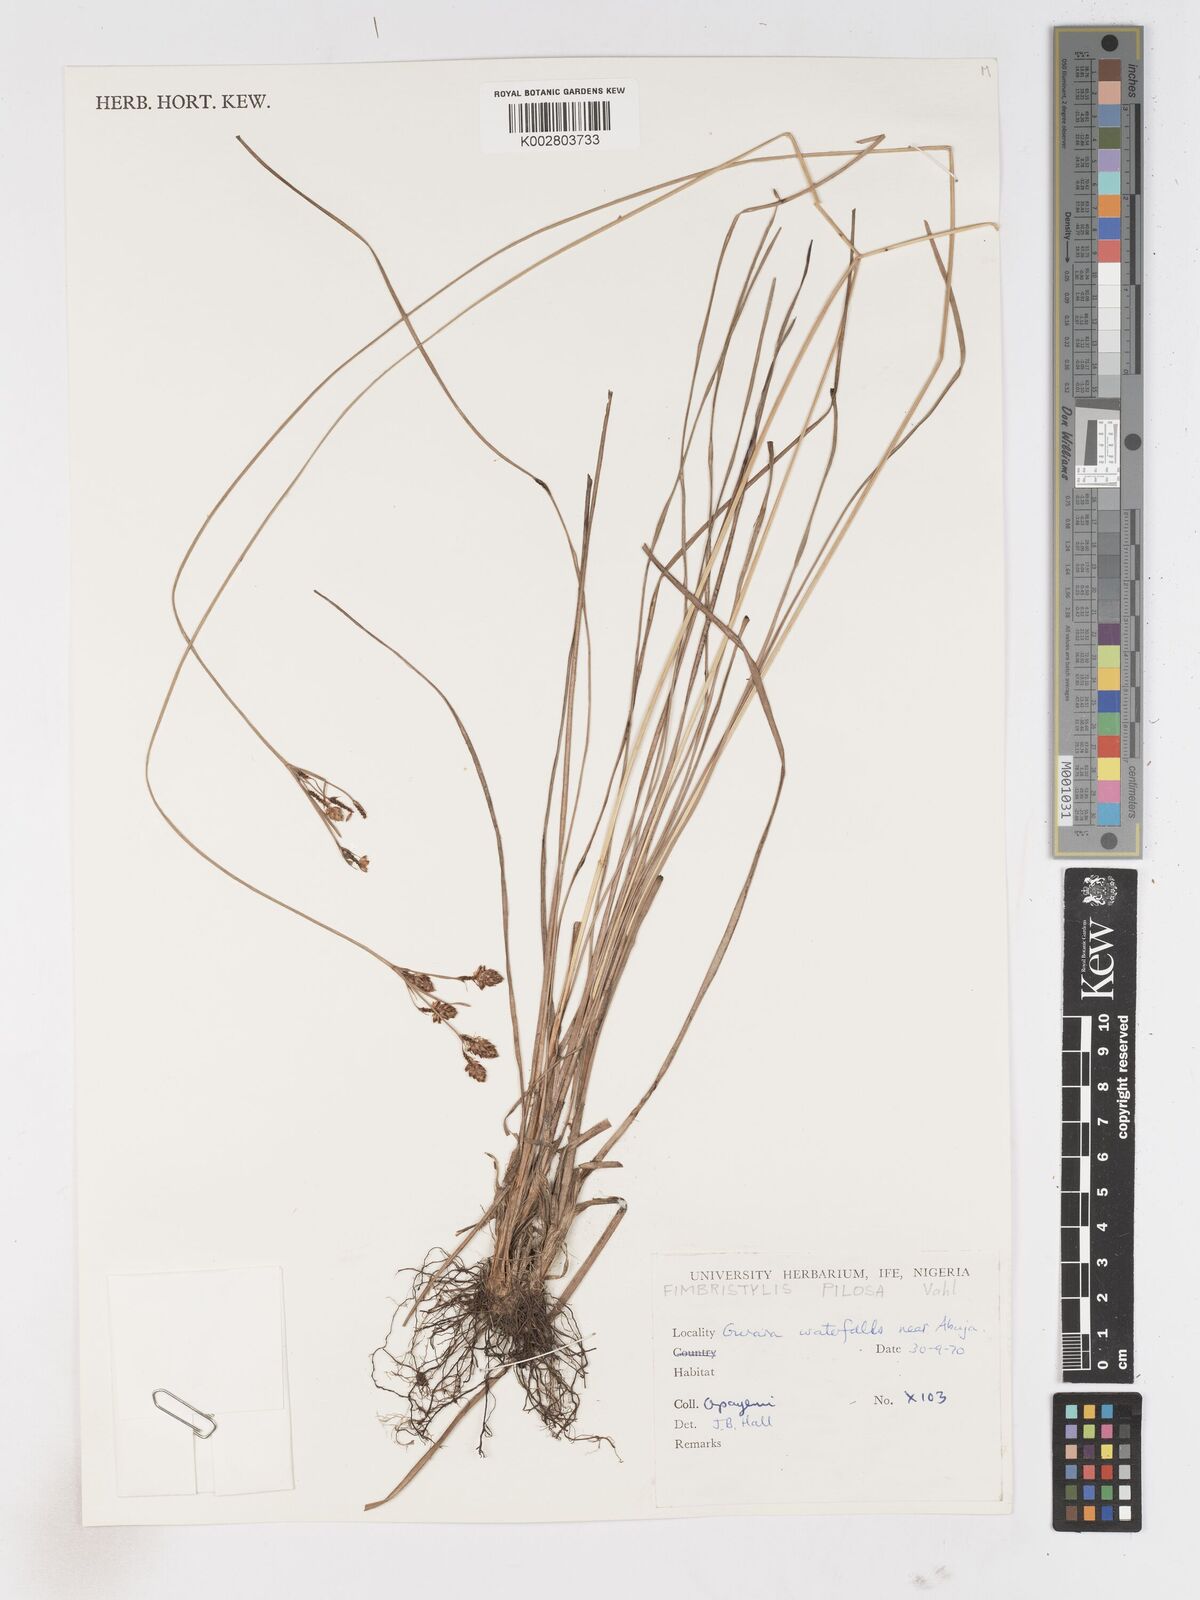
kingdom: Plantae
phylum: Tracheophyta
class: Liliopsida
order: Poales
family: Cyperaceae
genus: Fimbristylis
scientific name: Fimbristylis pilosa
